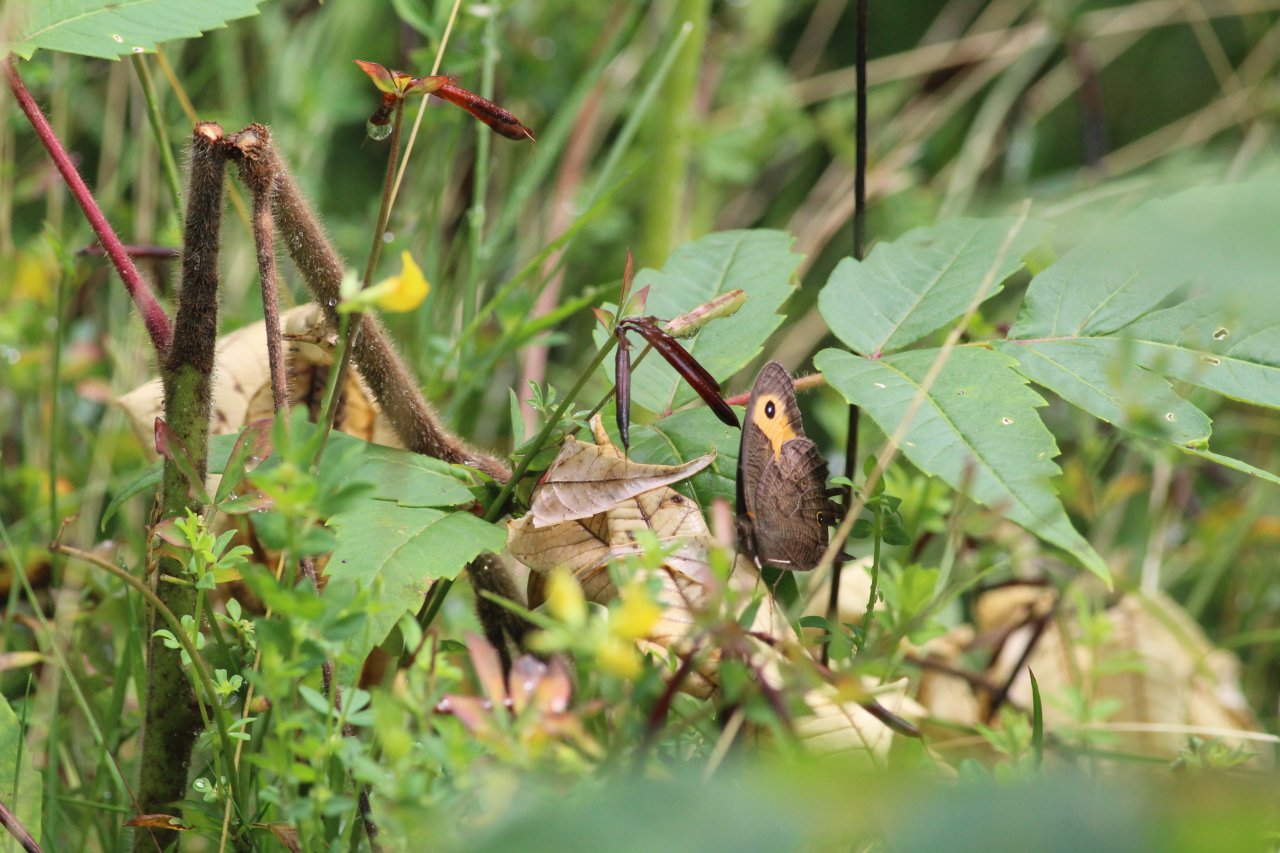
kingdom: Animalia
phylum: Arthropoda
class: Insecta
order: Lepidoptera
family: Nymphalidae
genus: Cercyonis
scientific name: Cercyonis pegala
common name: Common Wood-Nymph
